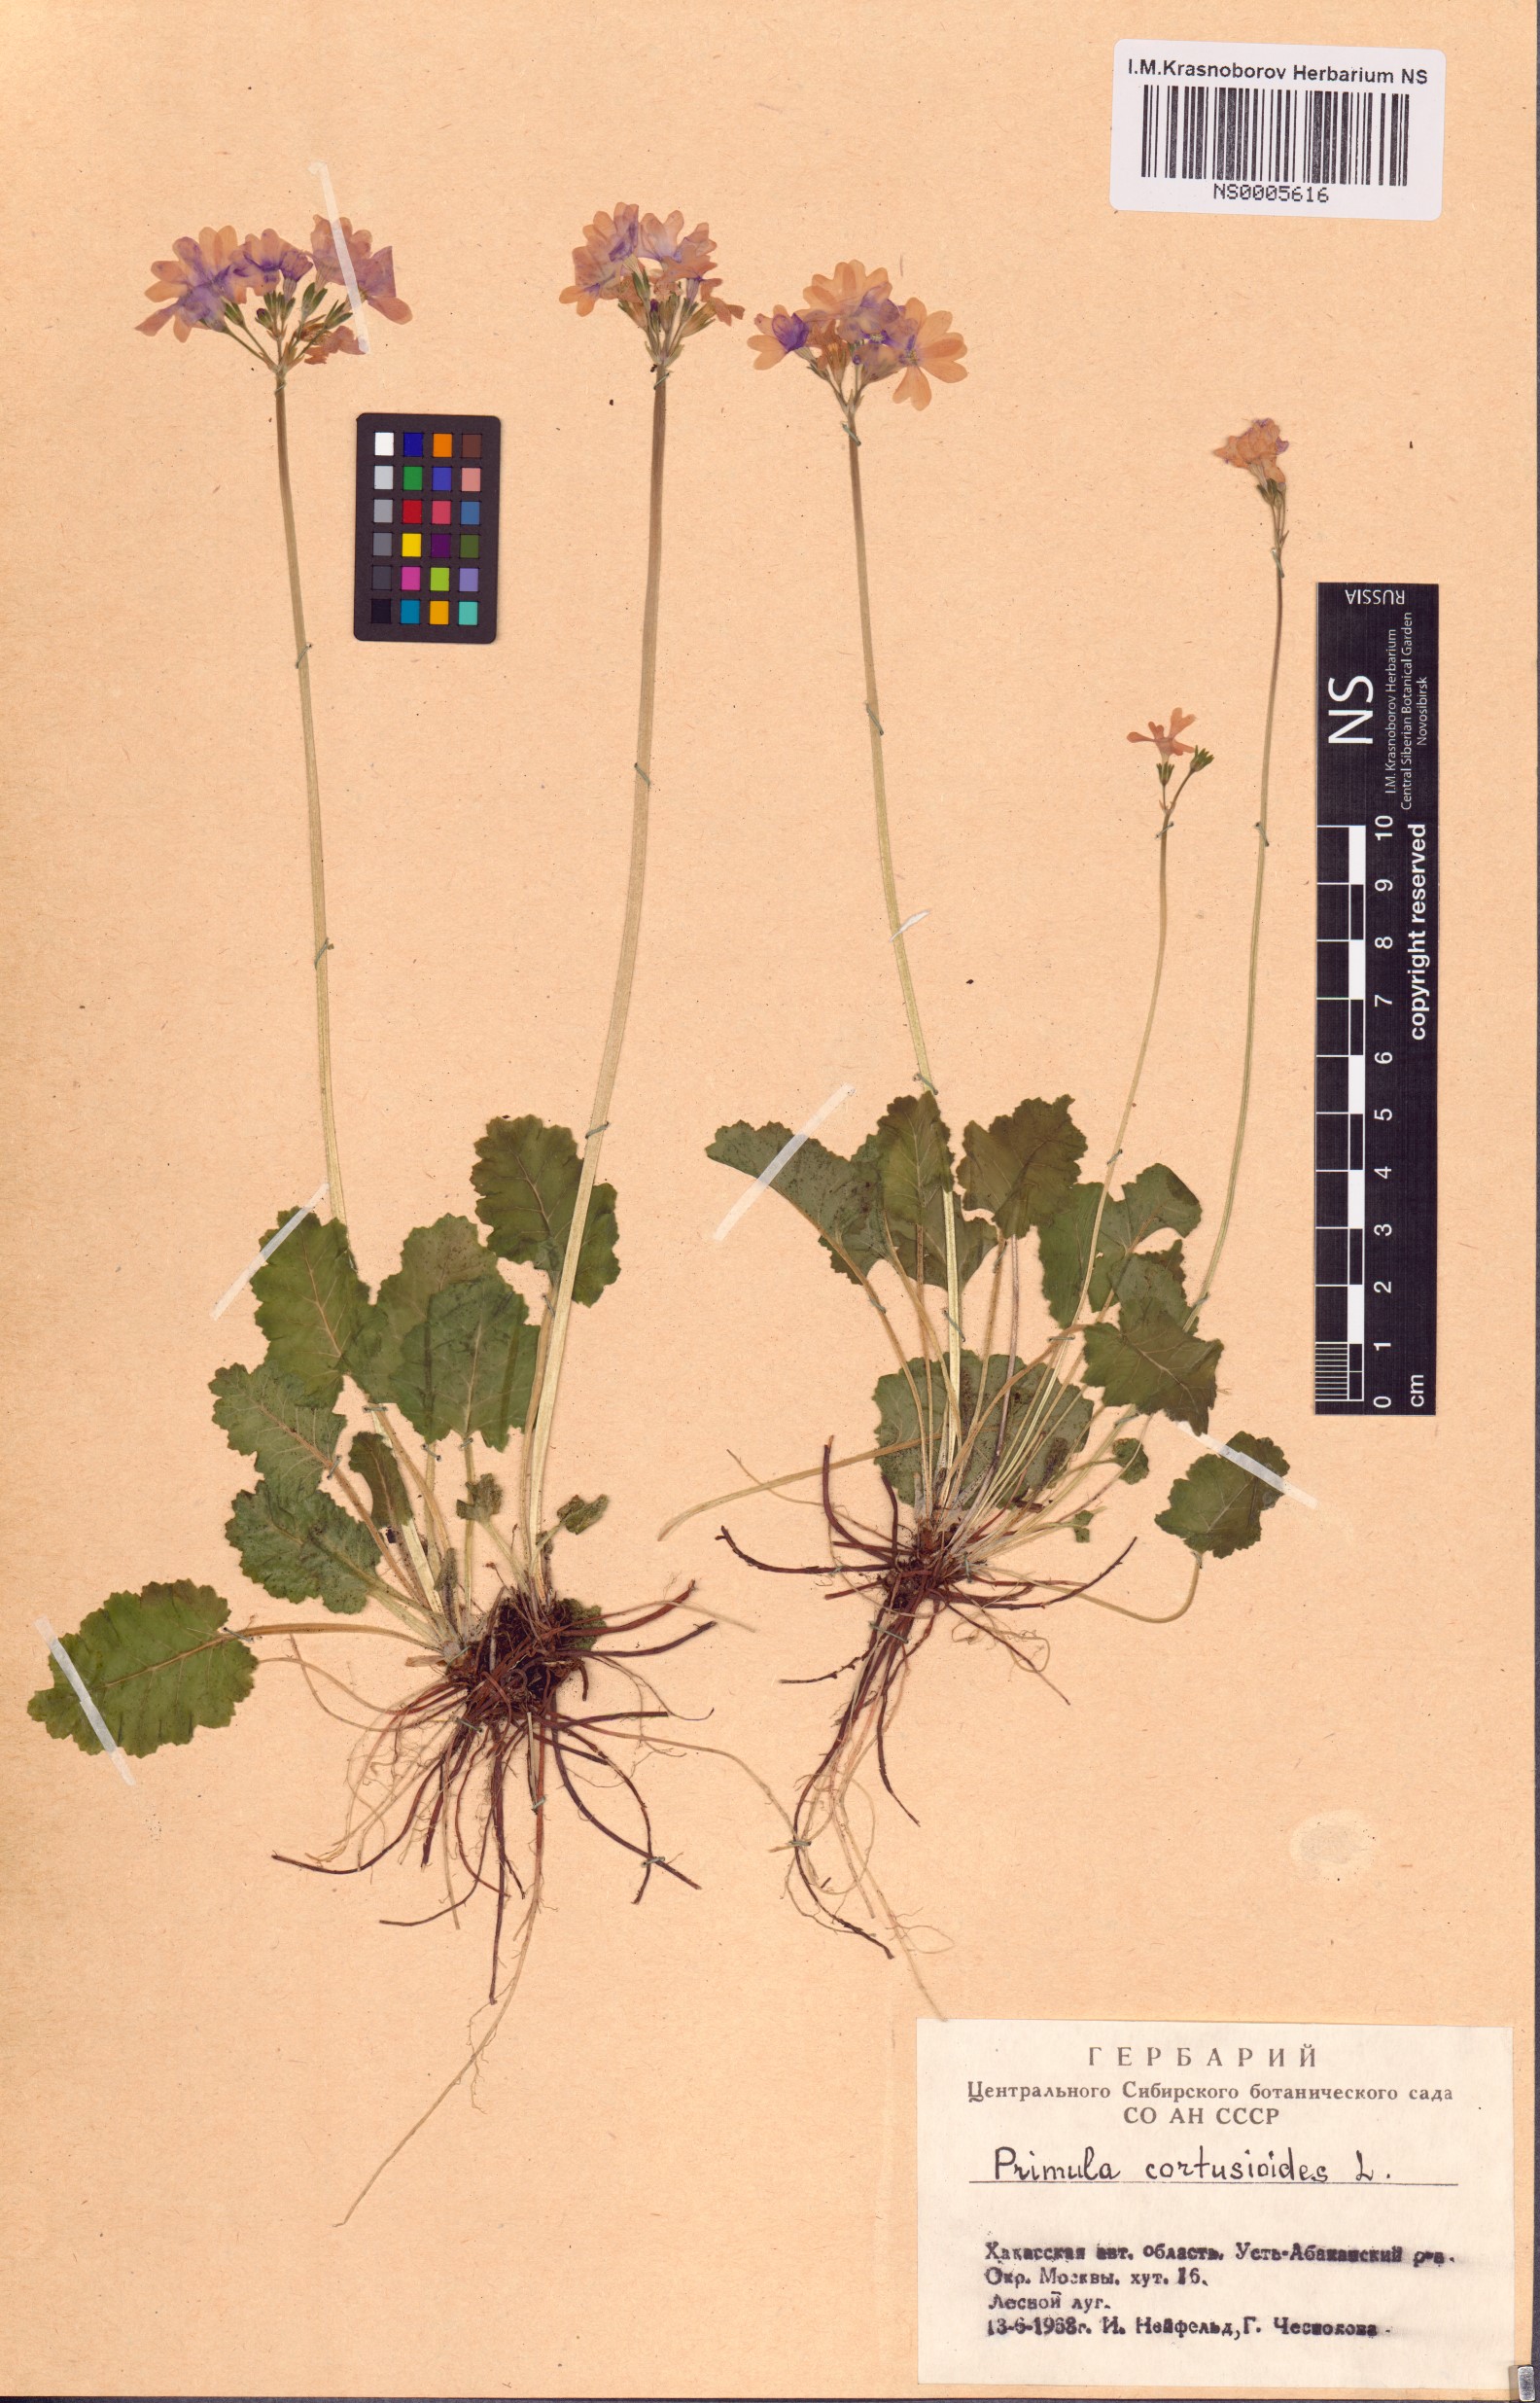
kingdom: Plantae
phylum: Tracheophyta
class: Magnoliopsida
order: Ericales
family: Primulaceae
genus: Primula
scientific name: Primula cortusoides
